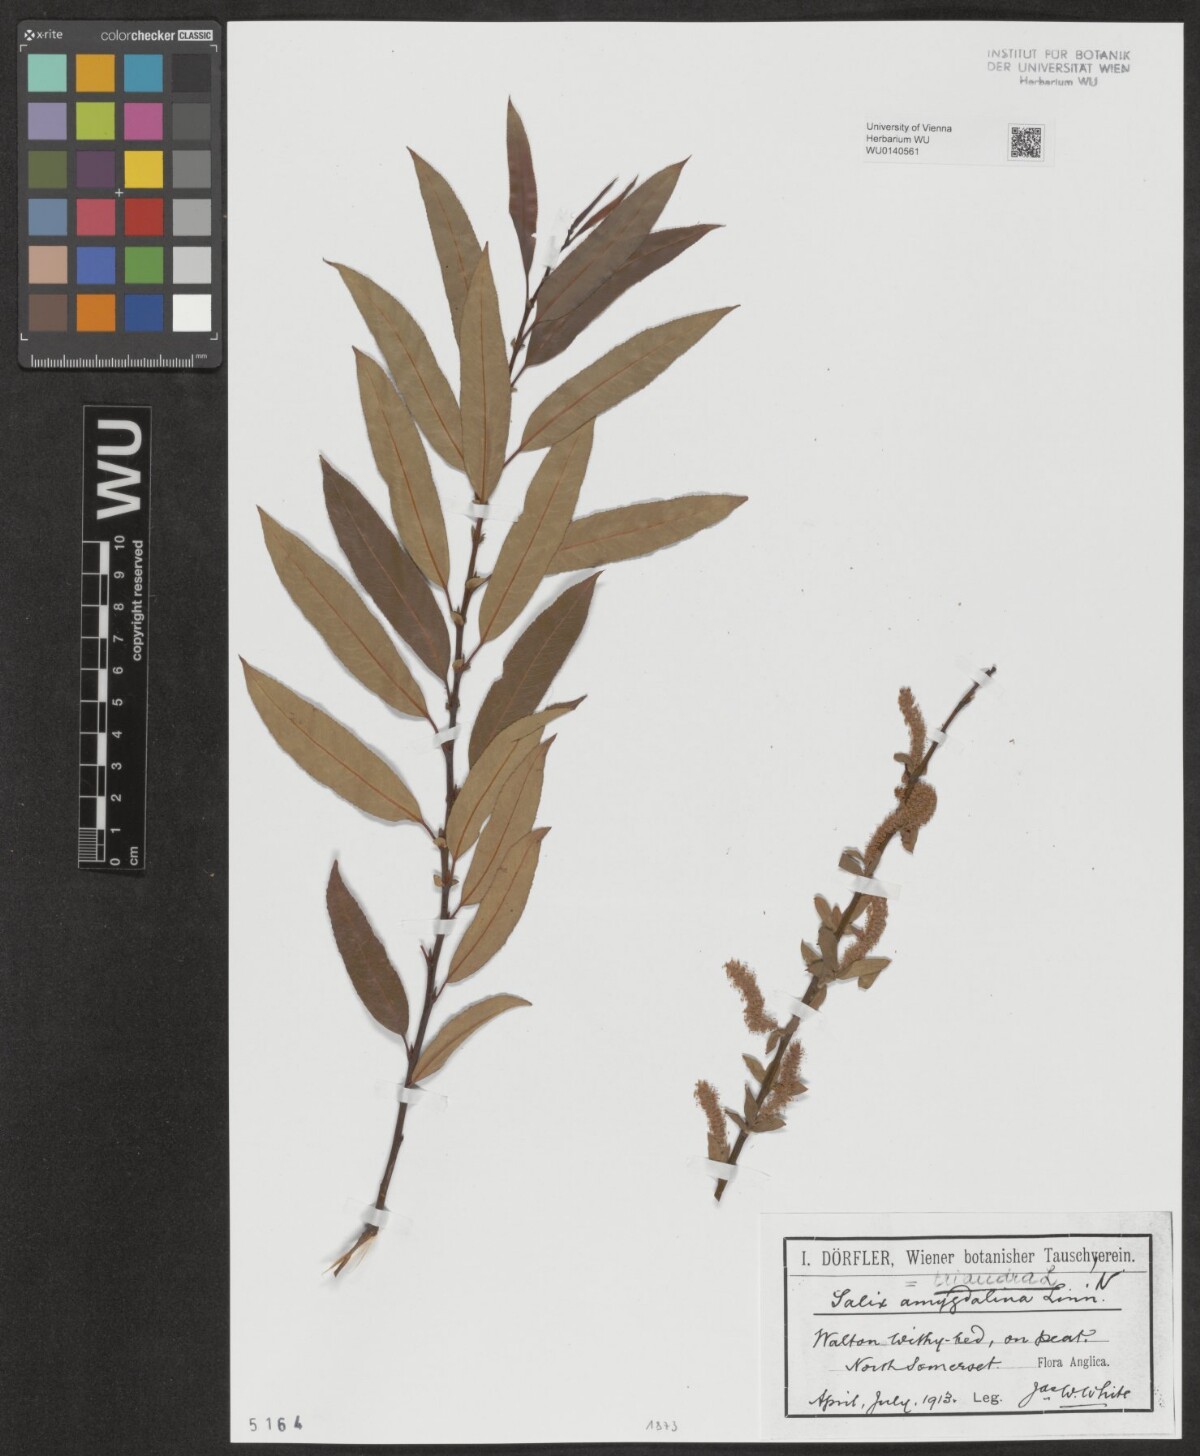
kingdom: Plantae
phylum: Tracheophyta
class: Magnoliopsida
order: Malpighiales
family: Salicaceae
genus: Salix
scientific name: Salix triandra
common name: Almond willow
